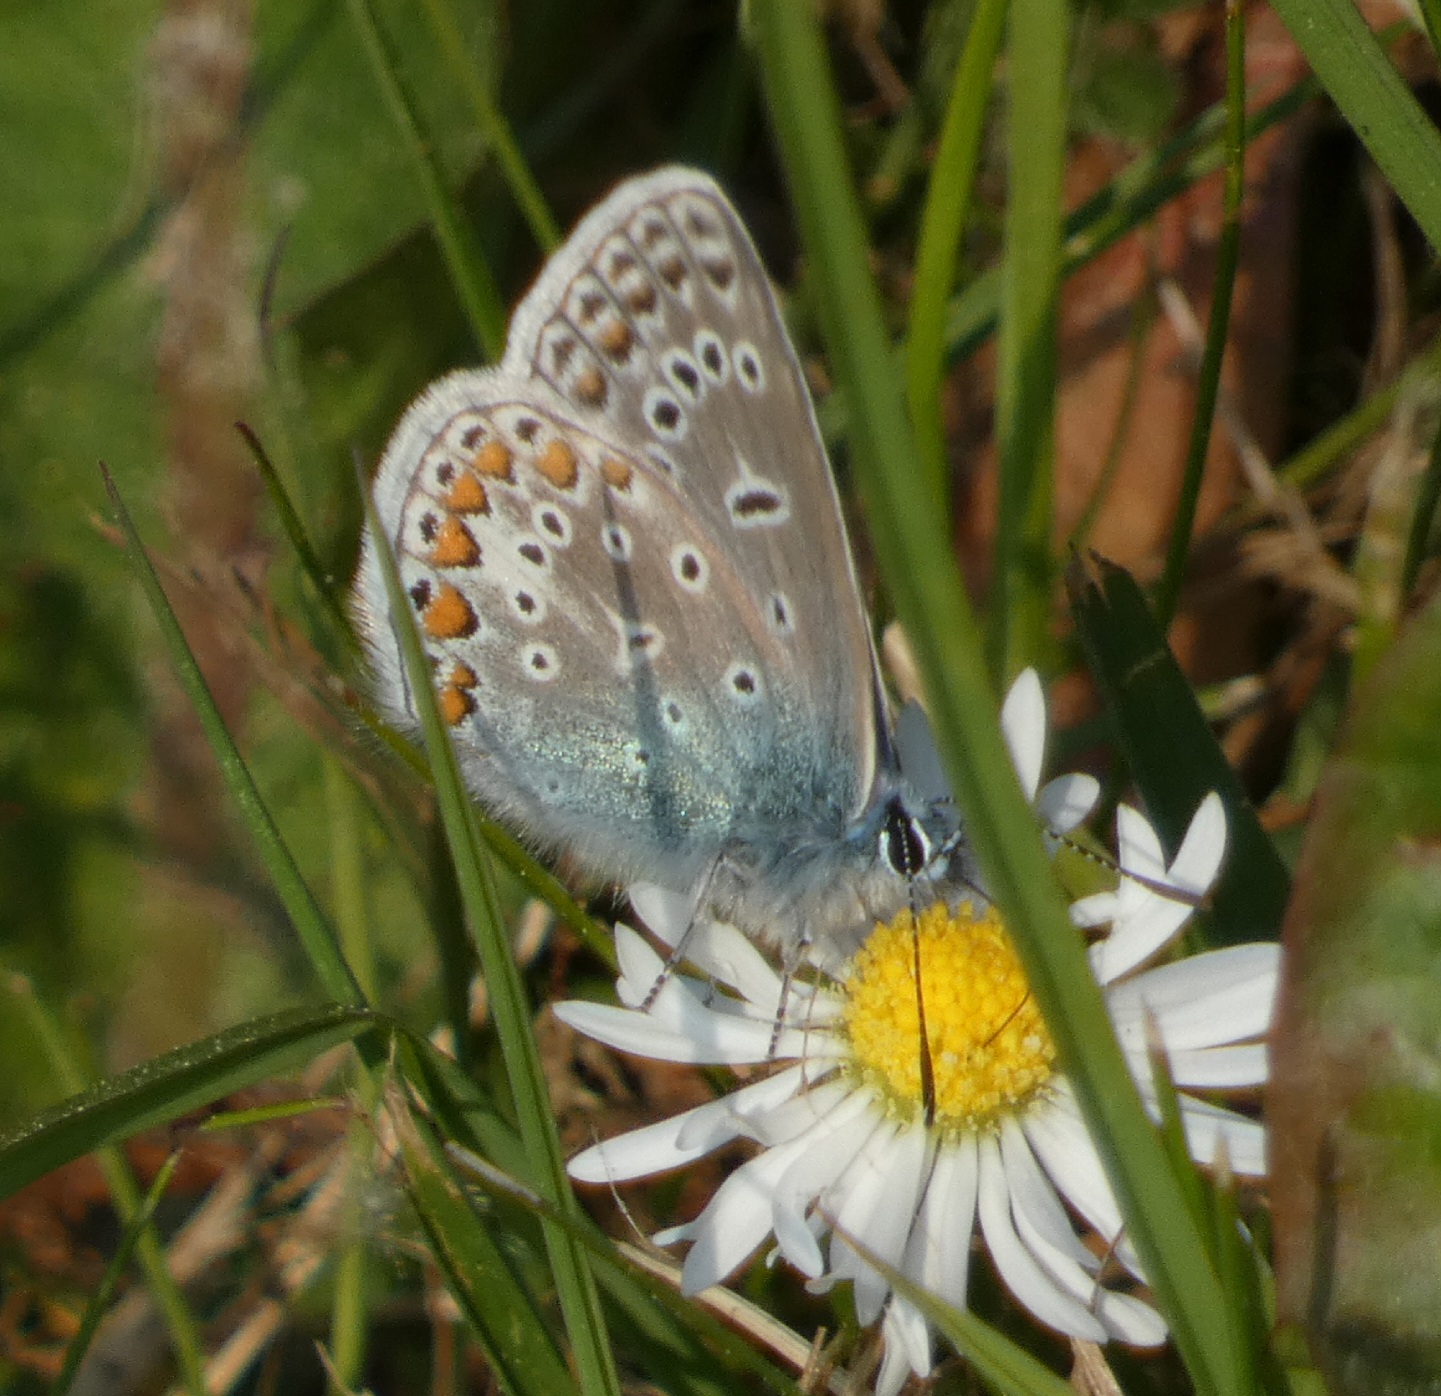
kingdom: Animalia
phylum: Arthropoda
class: Insecta
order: Lepidoptera
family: Lycaenidae
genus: Polyommatus
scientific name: Polyommatus icarus
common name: Almindelig blåfugl
